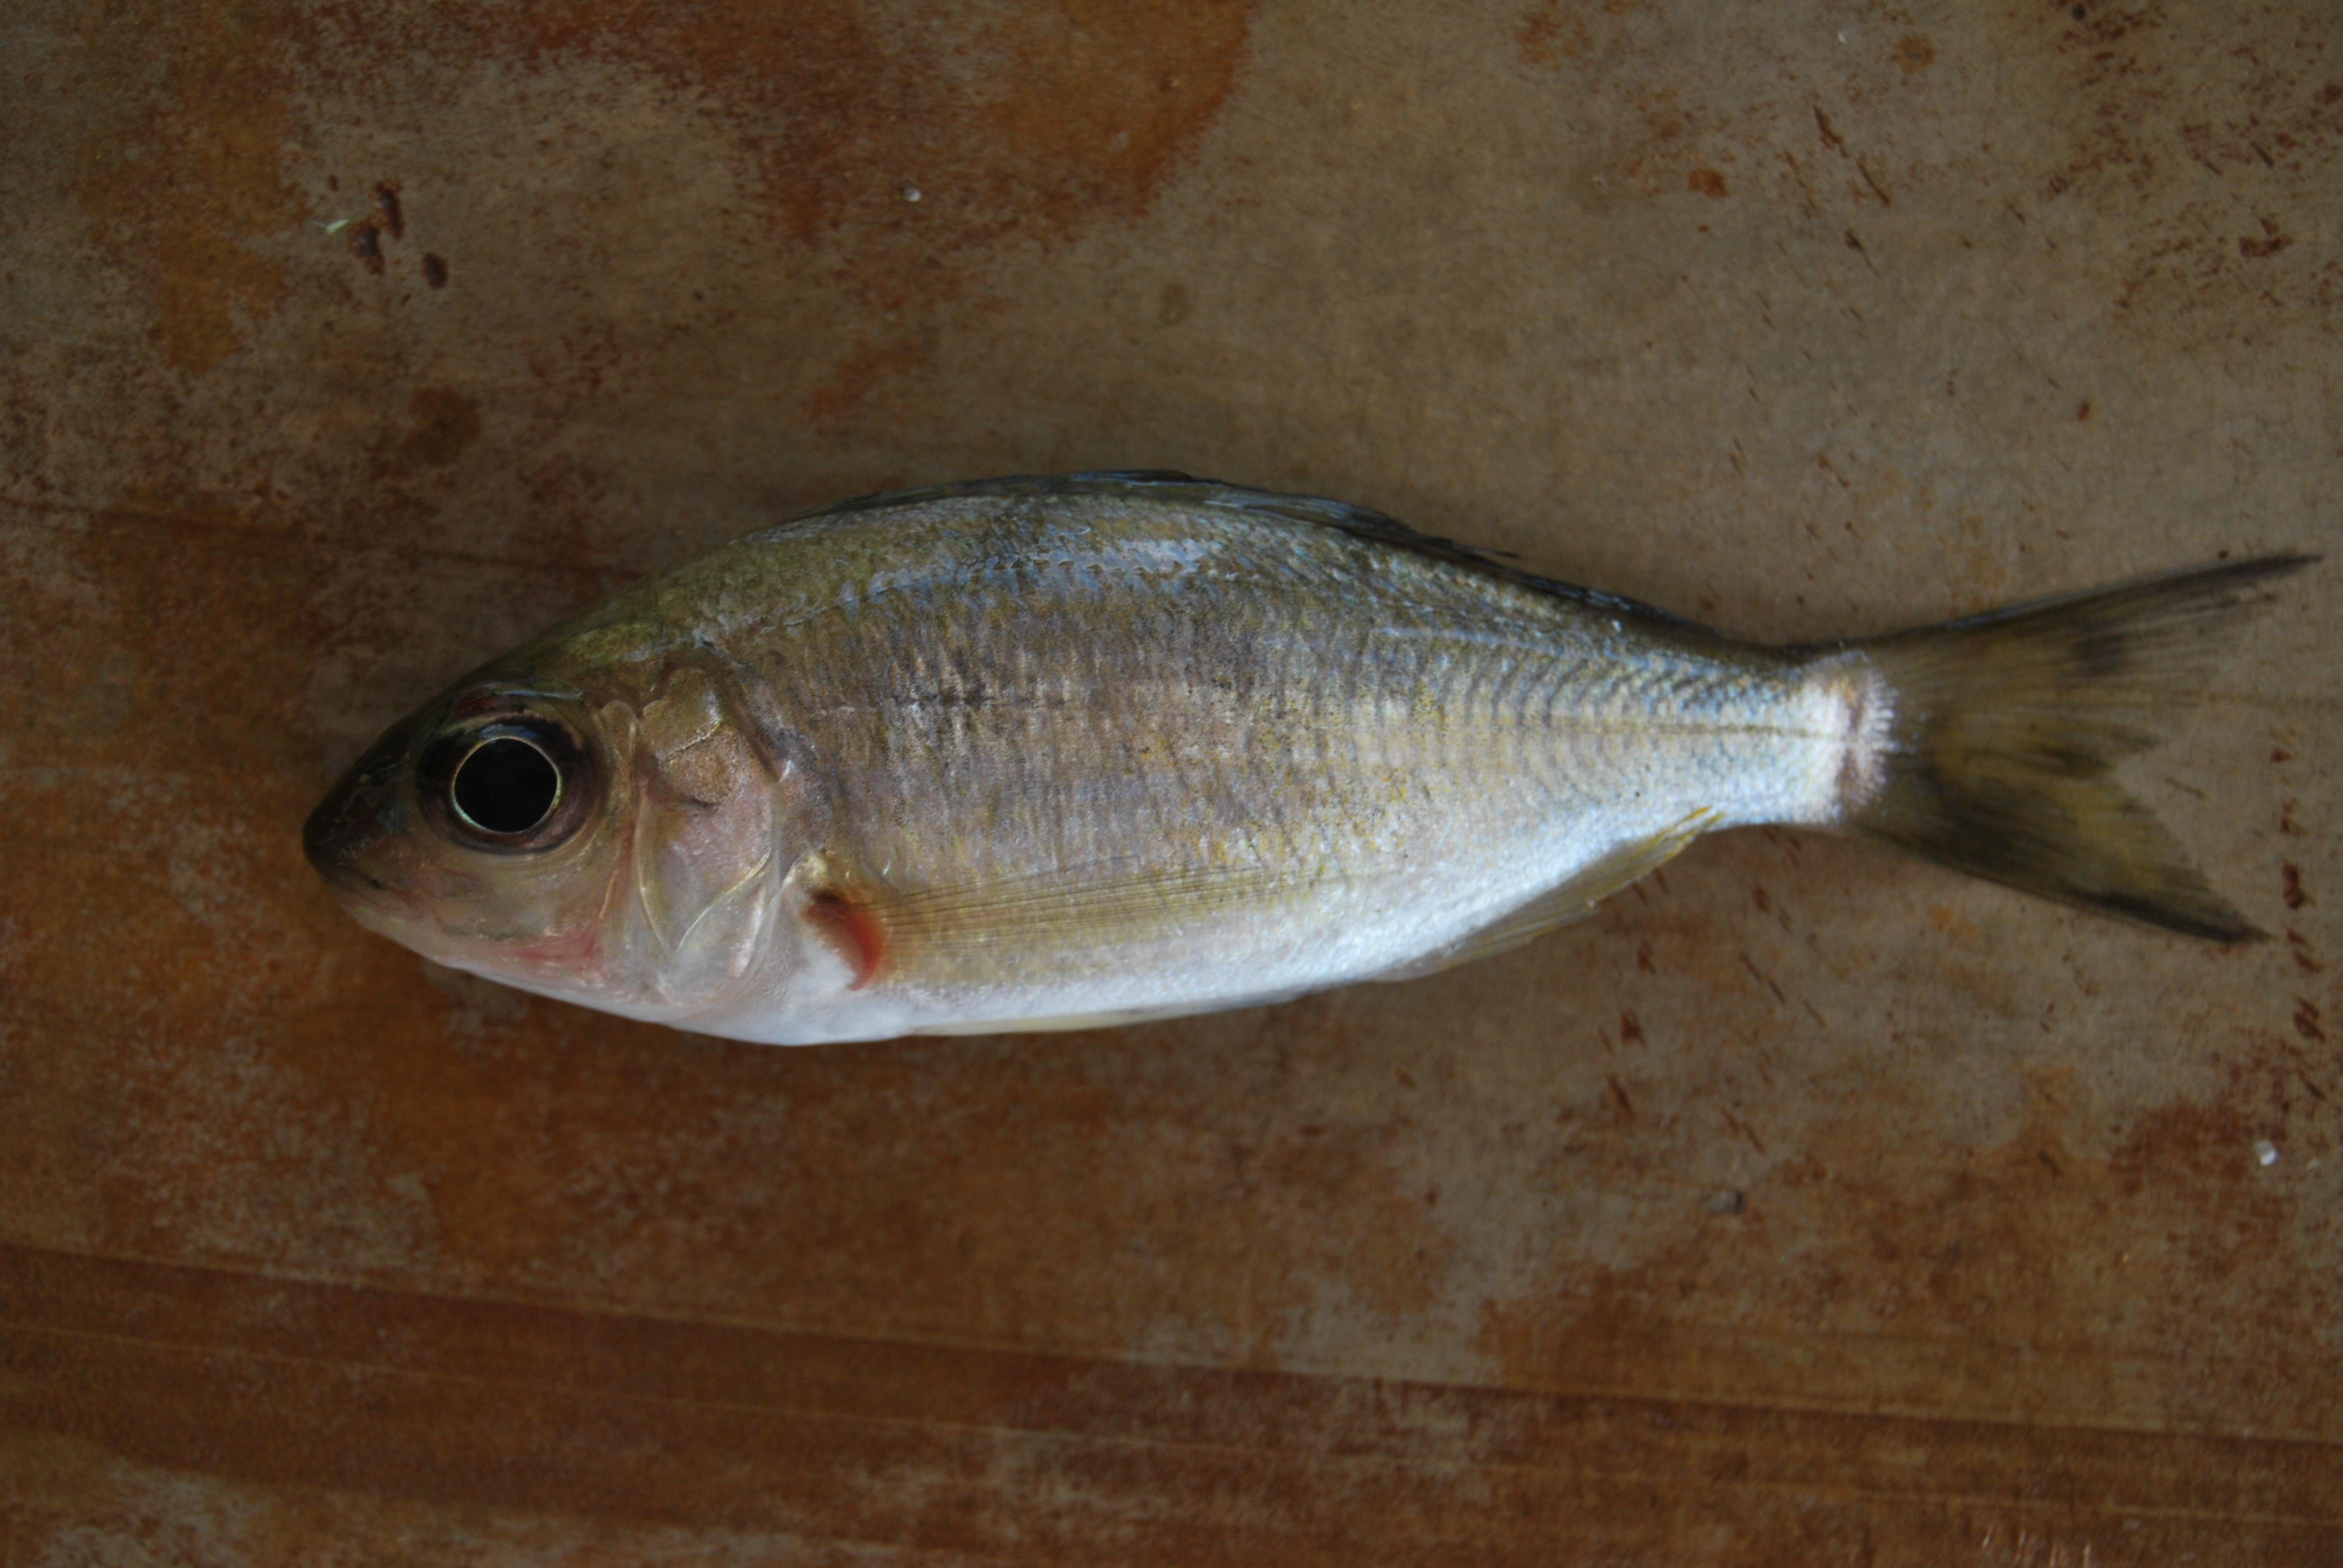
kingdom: Animalia
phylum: Chordata
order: Perciformes
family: Cichlidae
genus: Ectodus
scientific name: Ectodus descampsii
